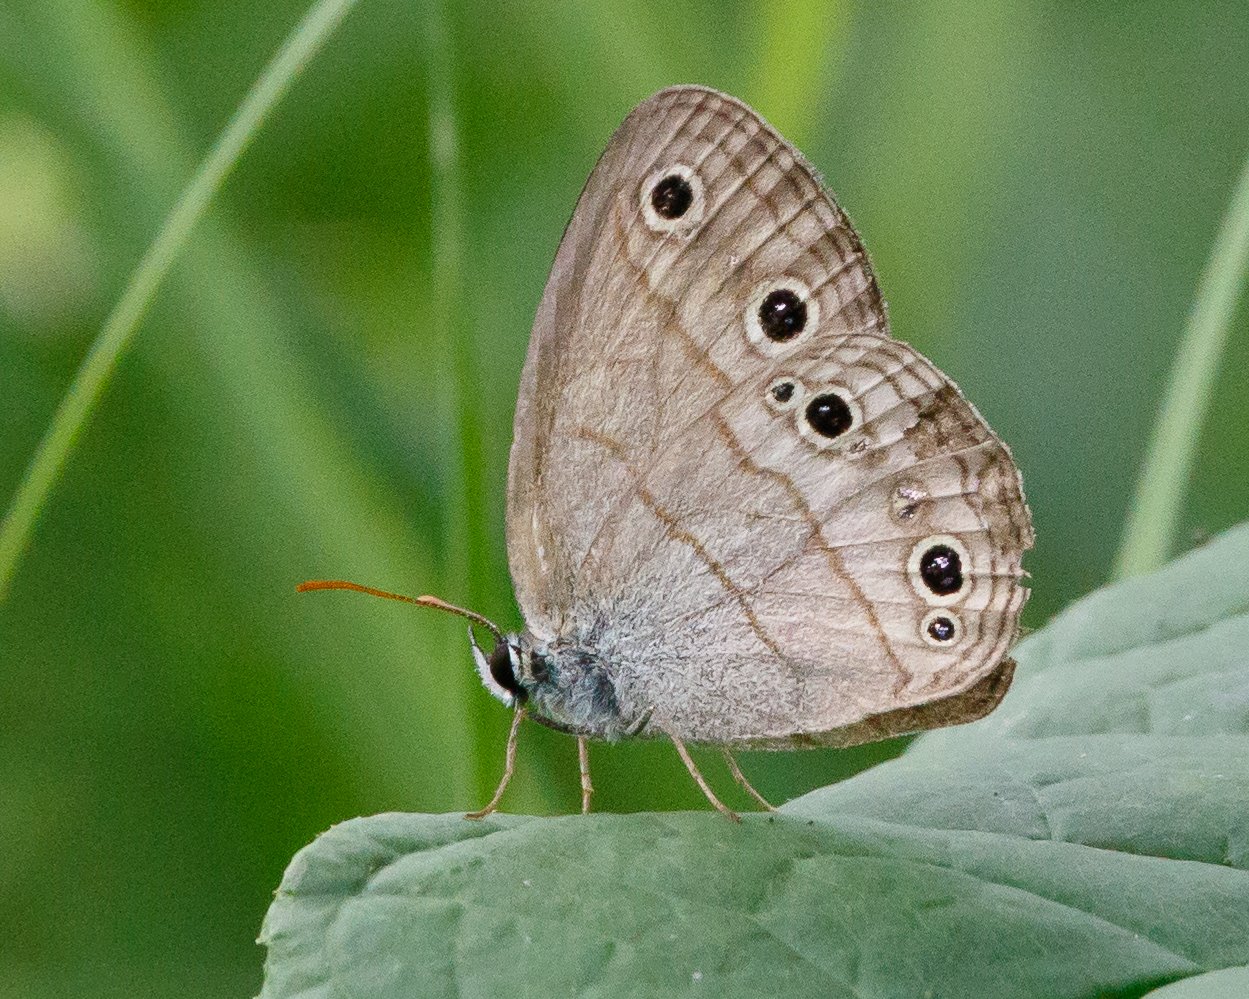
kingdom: Animalia
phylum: Arthropoda
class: Insecta
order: Lepidoptera
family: Nymphalidae
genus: Euptychia
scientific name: Euptychia cymela
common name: Little Wood Satyr
